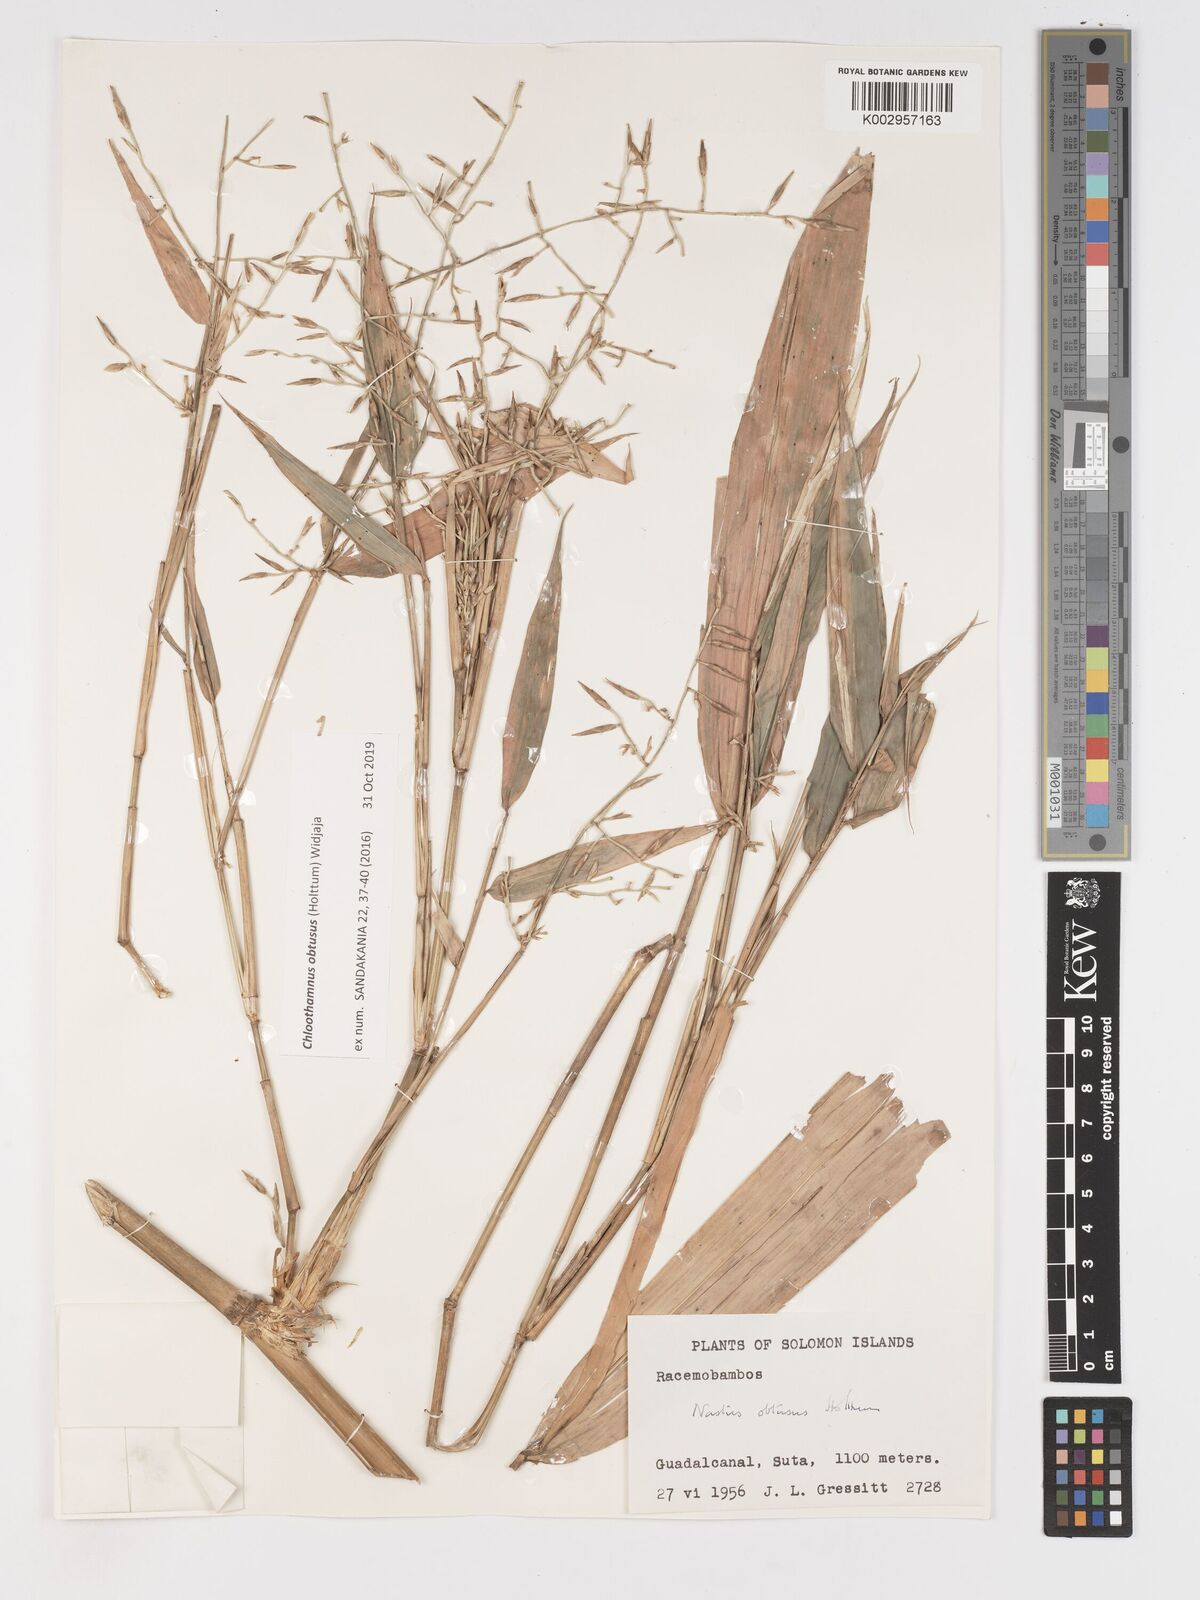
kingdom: Plantae
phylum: Tracheophyta
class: Liliopsida
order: Poales
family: Poaceae
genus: Chloothamnus
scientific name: Chloothamnus obtusus
